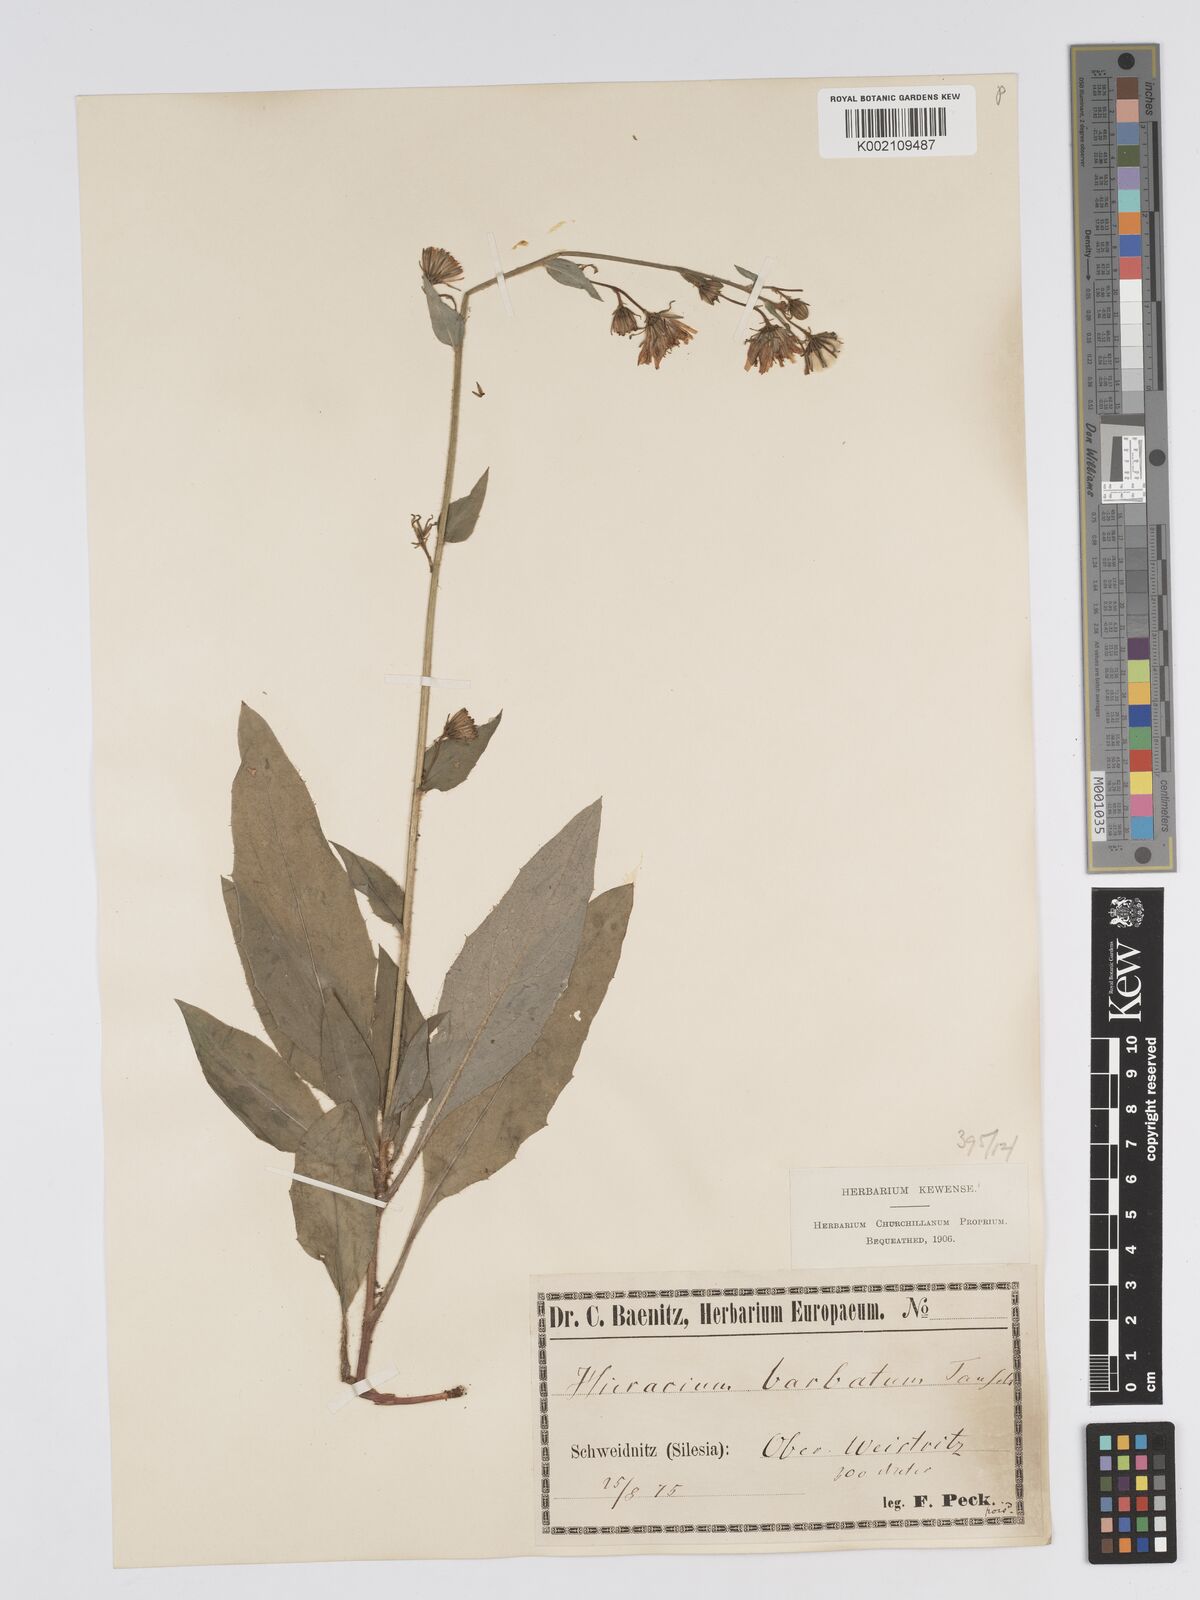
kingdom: Plantae
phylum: Tracheophyta
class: Magnoliopsida
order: Asterales
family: Asteraceae
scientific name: Asteraceae
